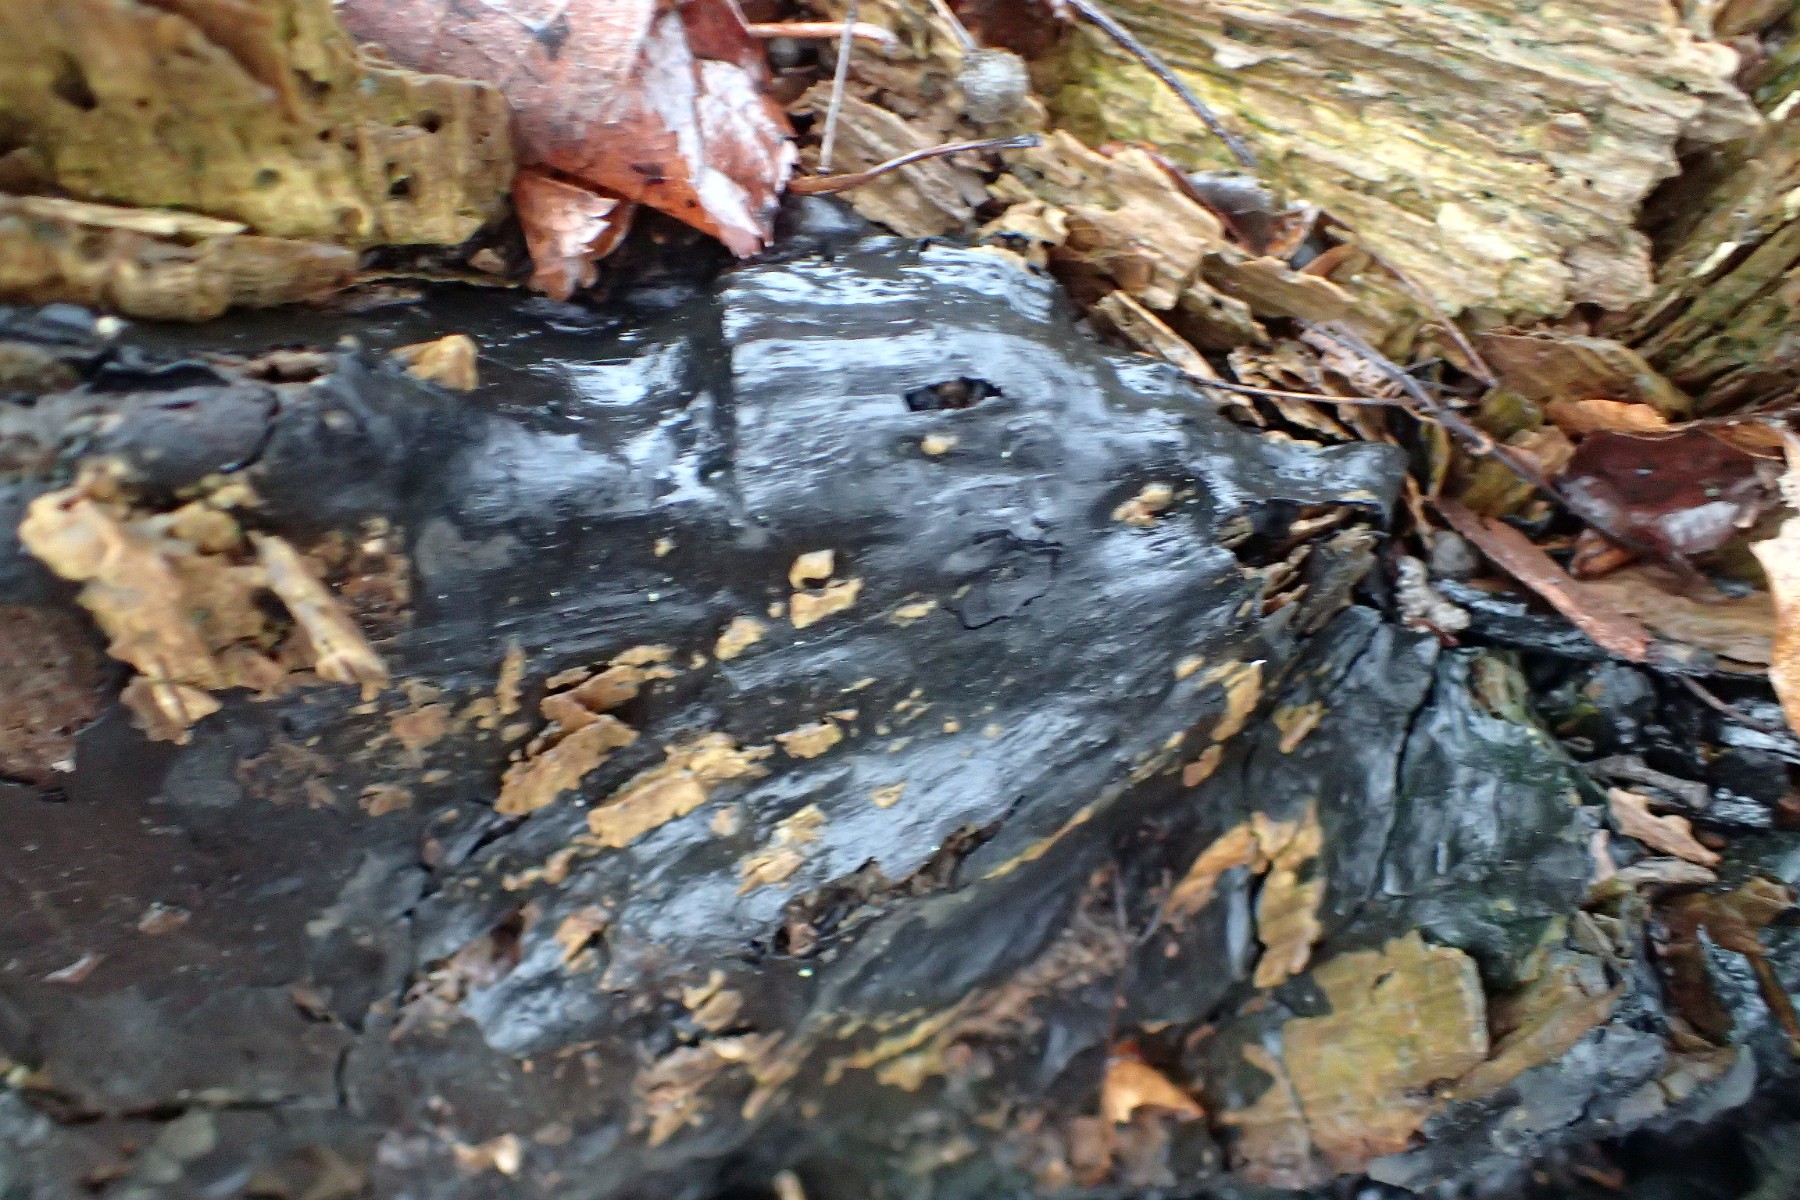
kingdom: Fungi
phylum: Ascomycota
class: Sordariomycetes
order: Xylariales
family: Xylariaceae
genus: Kretzschmaria
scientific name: Kretzschmaria deusta
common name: stor kulsvamp
